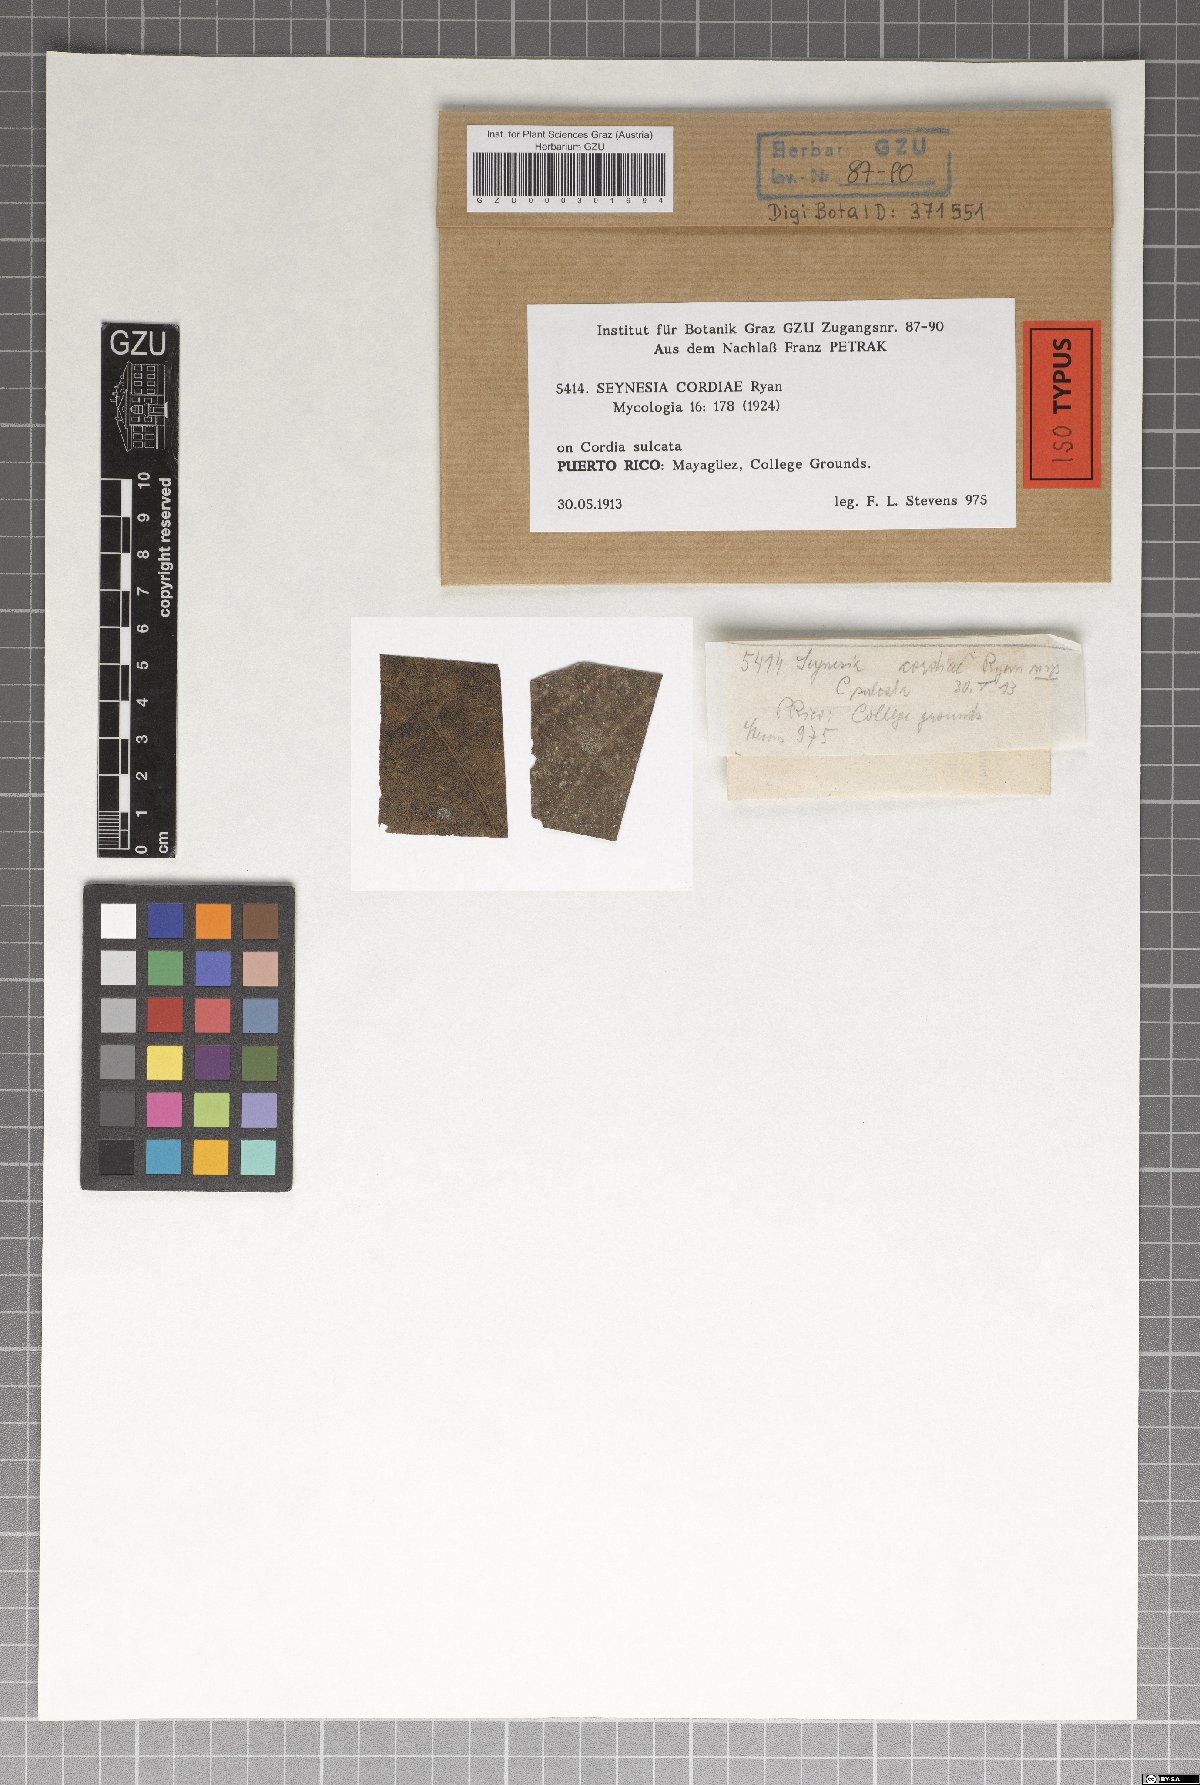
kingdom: Fungi
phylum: Ascomycota
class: Sordariomycetes
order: Xylariales
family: Cainiaceae
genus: Seynesia
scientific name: Seynesia cordiae
